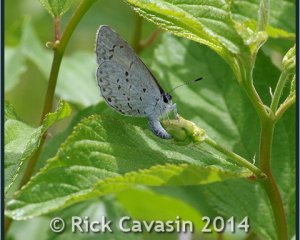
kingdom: Animalia
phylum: Arthropoda
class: Insecta
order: Lepidoptera
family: Lycaenidae
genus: Celastrina
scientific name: Celastrina serotina
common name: Cherry Gall Azure
